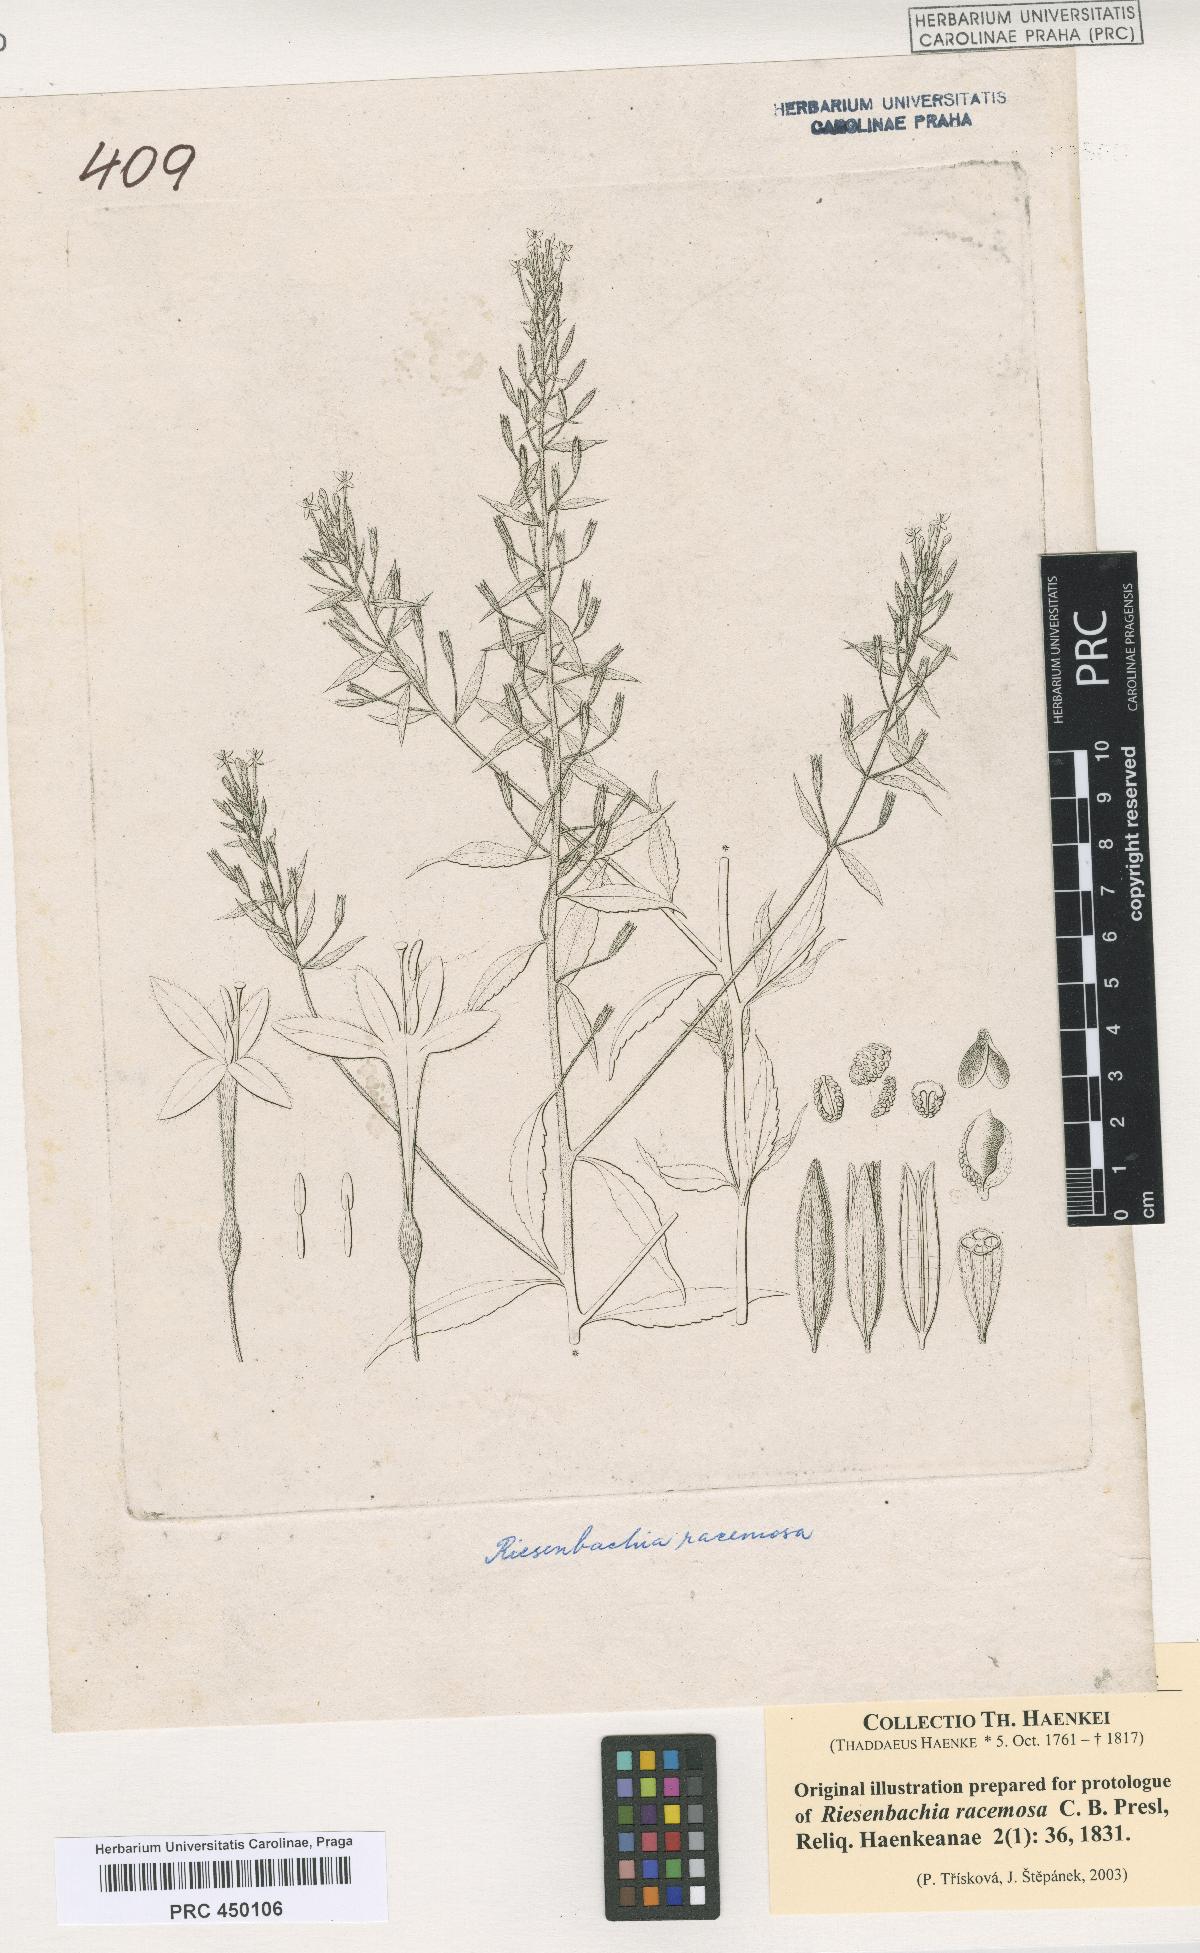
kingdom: Plantae
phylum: Tracheophyta
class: Magnoliopsida
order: Myrtales
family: Onagraceae
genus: Lopezia
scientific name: Lopezia riesenbachia
